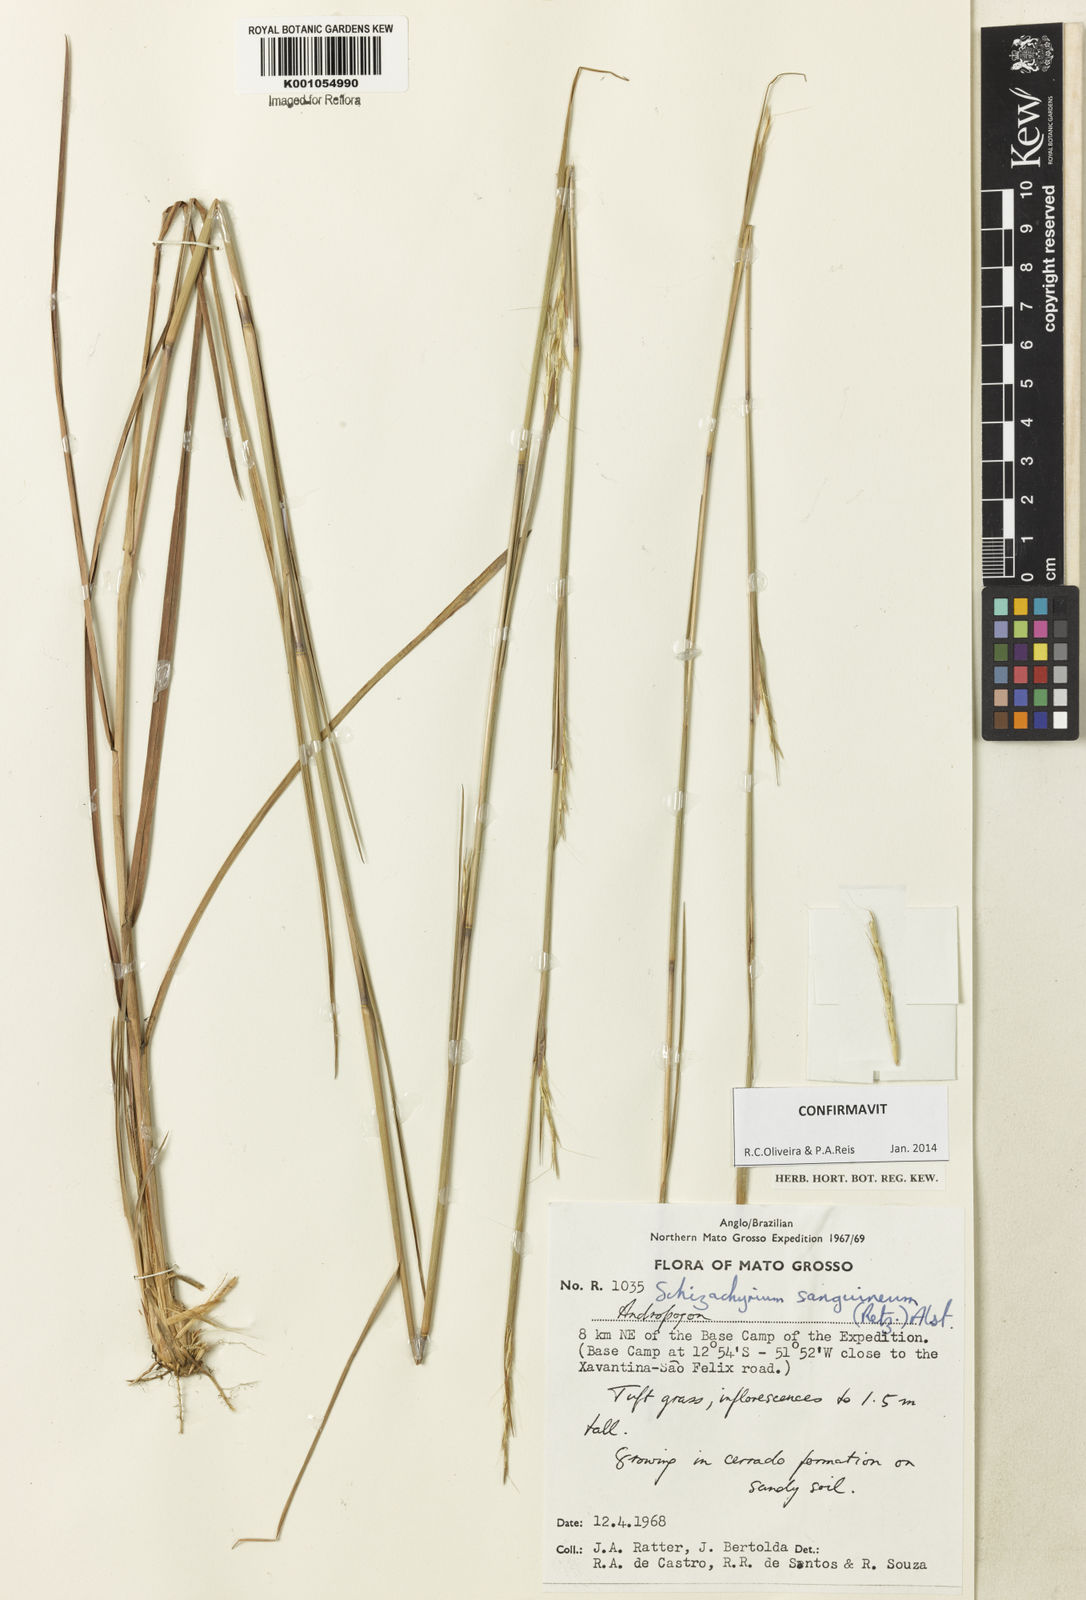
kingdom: Plantae
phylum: Tracheophyta
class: Liliopsida
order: Poales
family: Poaceae
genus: Schizachyrium
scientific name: Schizachyrium sanguineum
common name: Crimson bluestem
